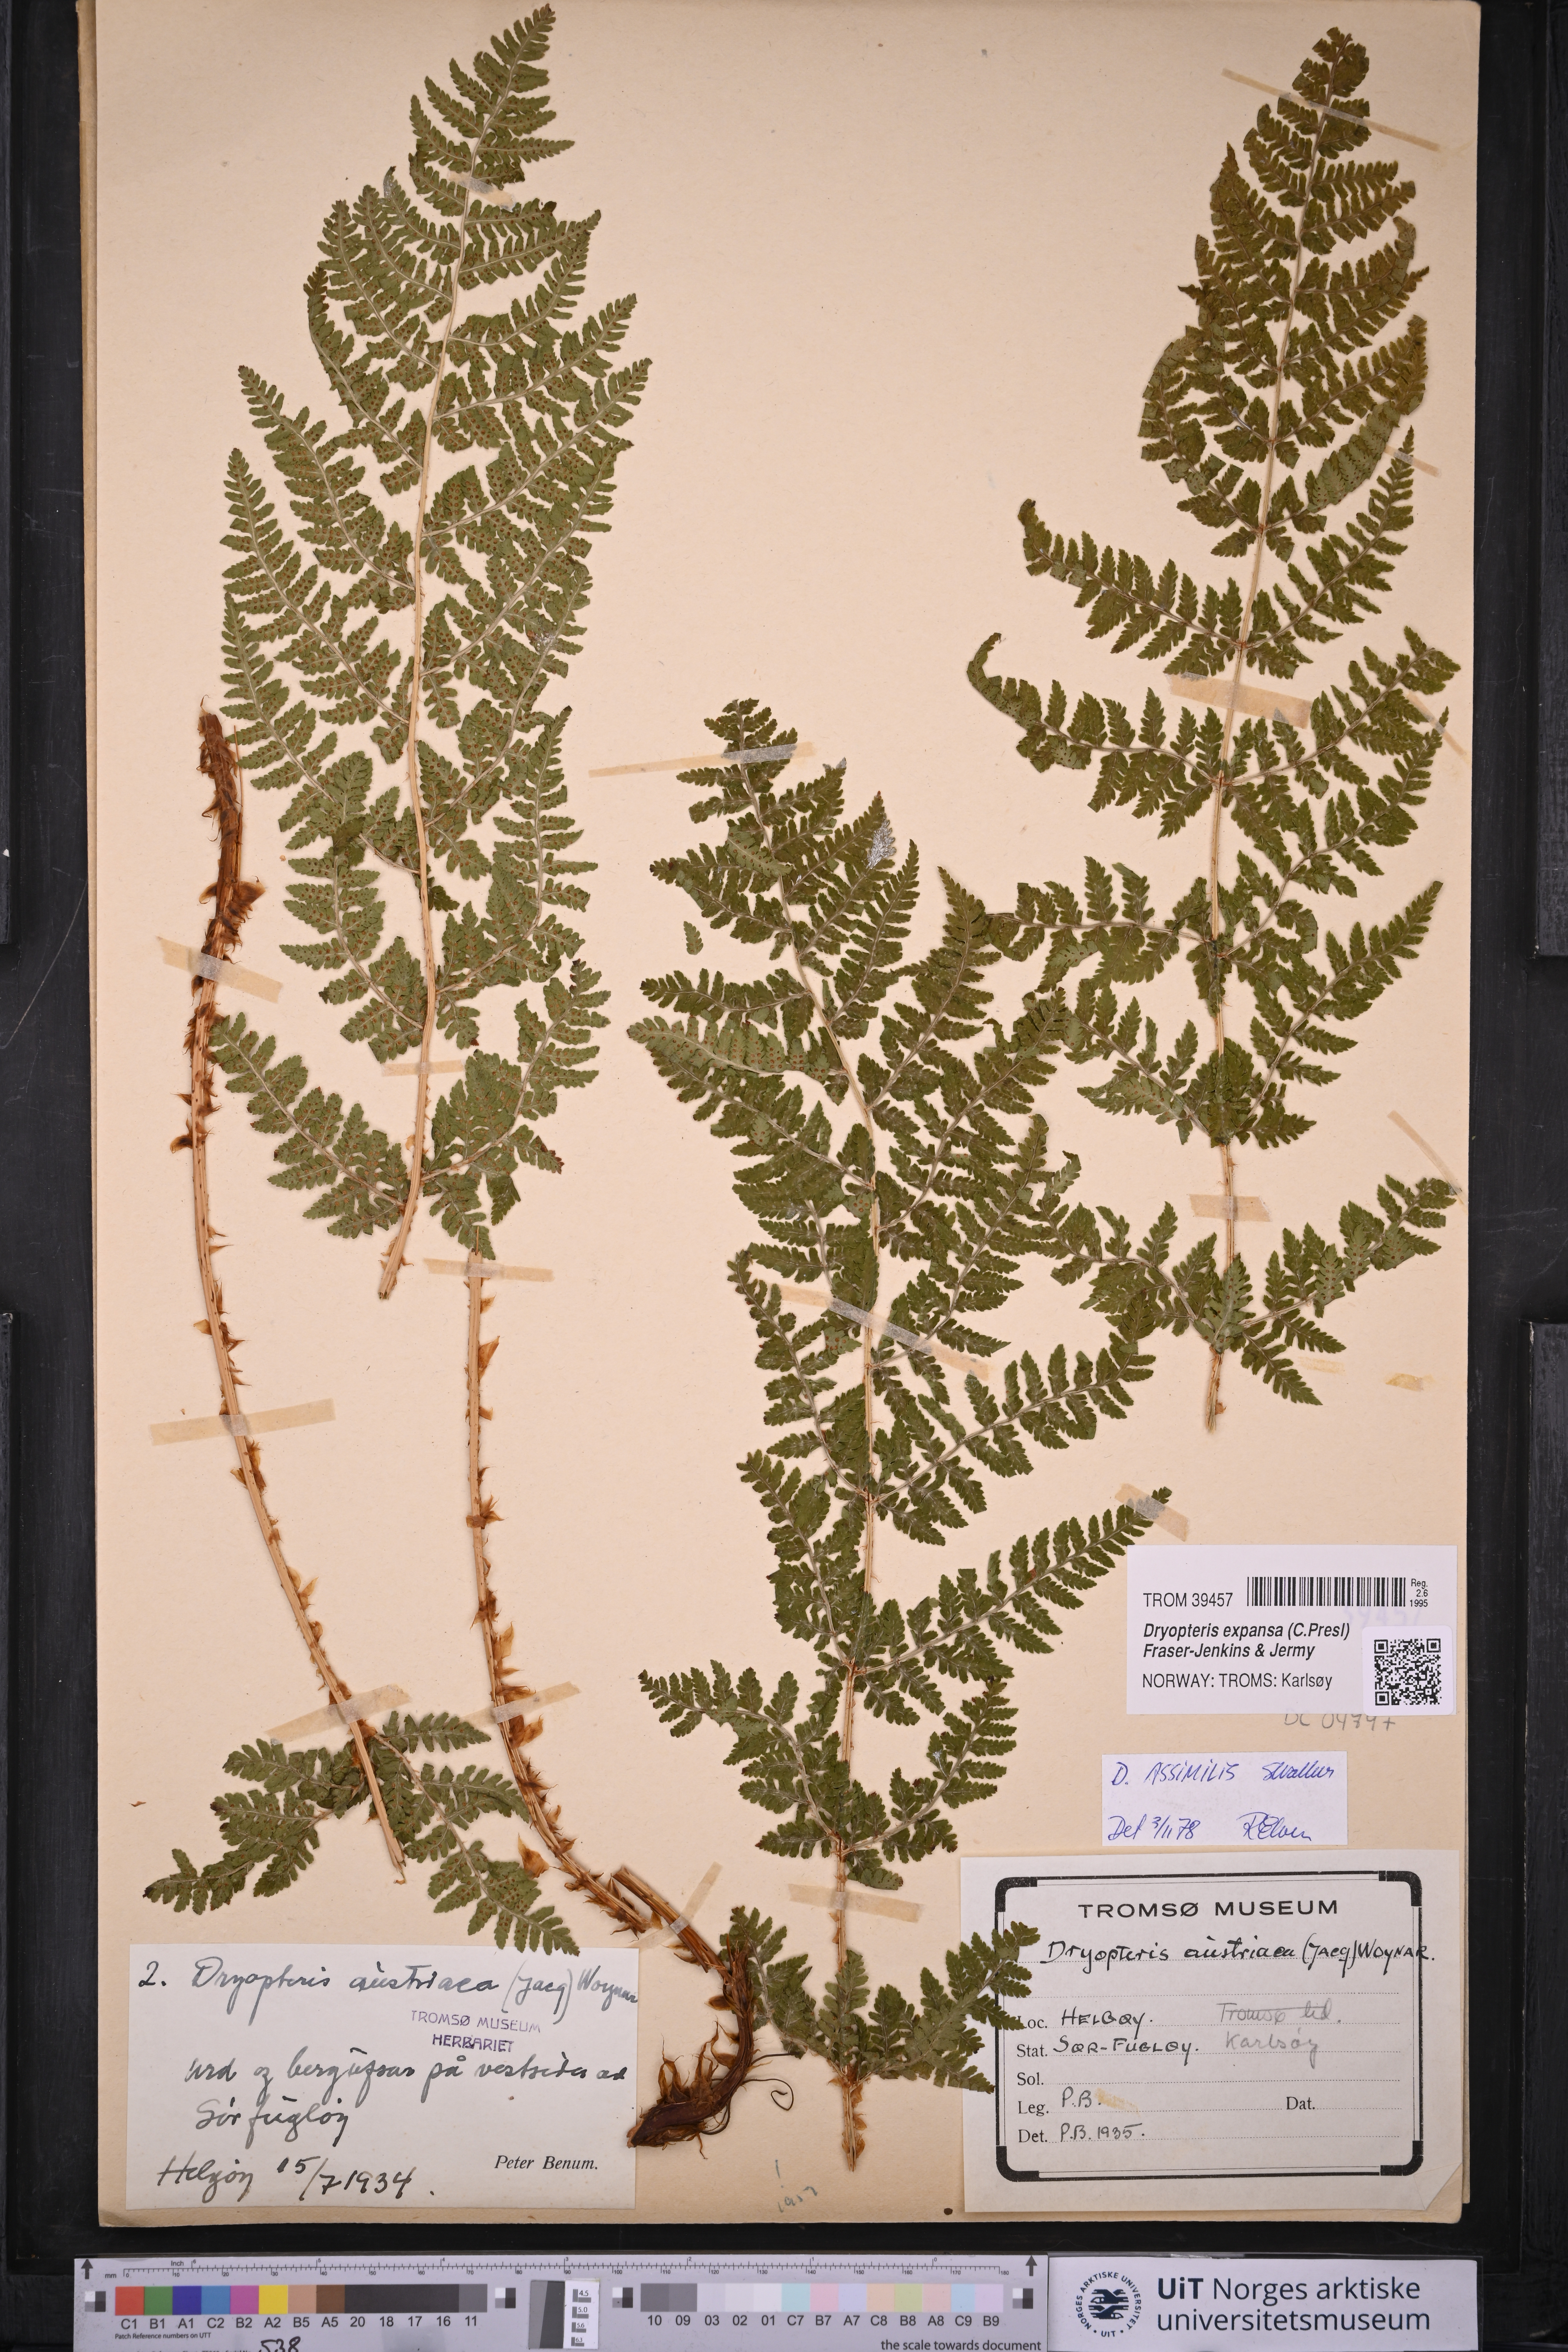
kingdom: Plantae
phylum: Tracheophyta
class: Polypodiopsida
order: Polypodiales
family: Dryopteridaceae
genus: Dryopteris
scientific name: Dryopteris expansa
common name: Northern buckler fern
